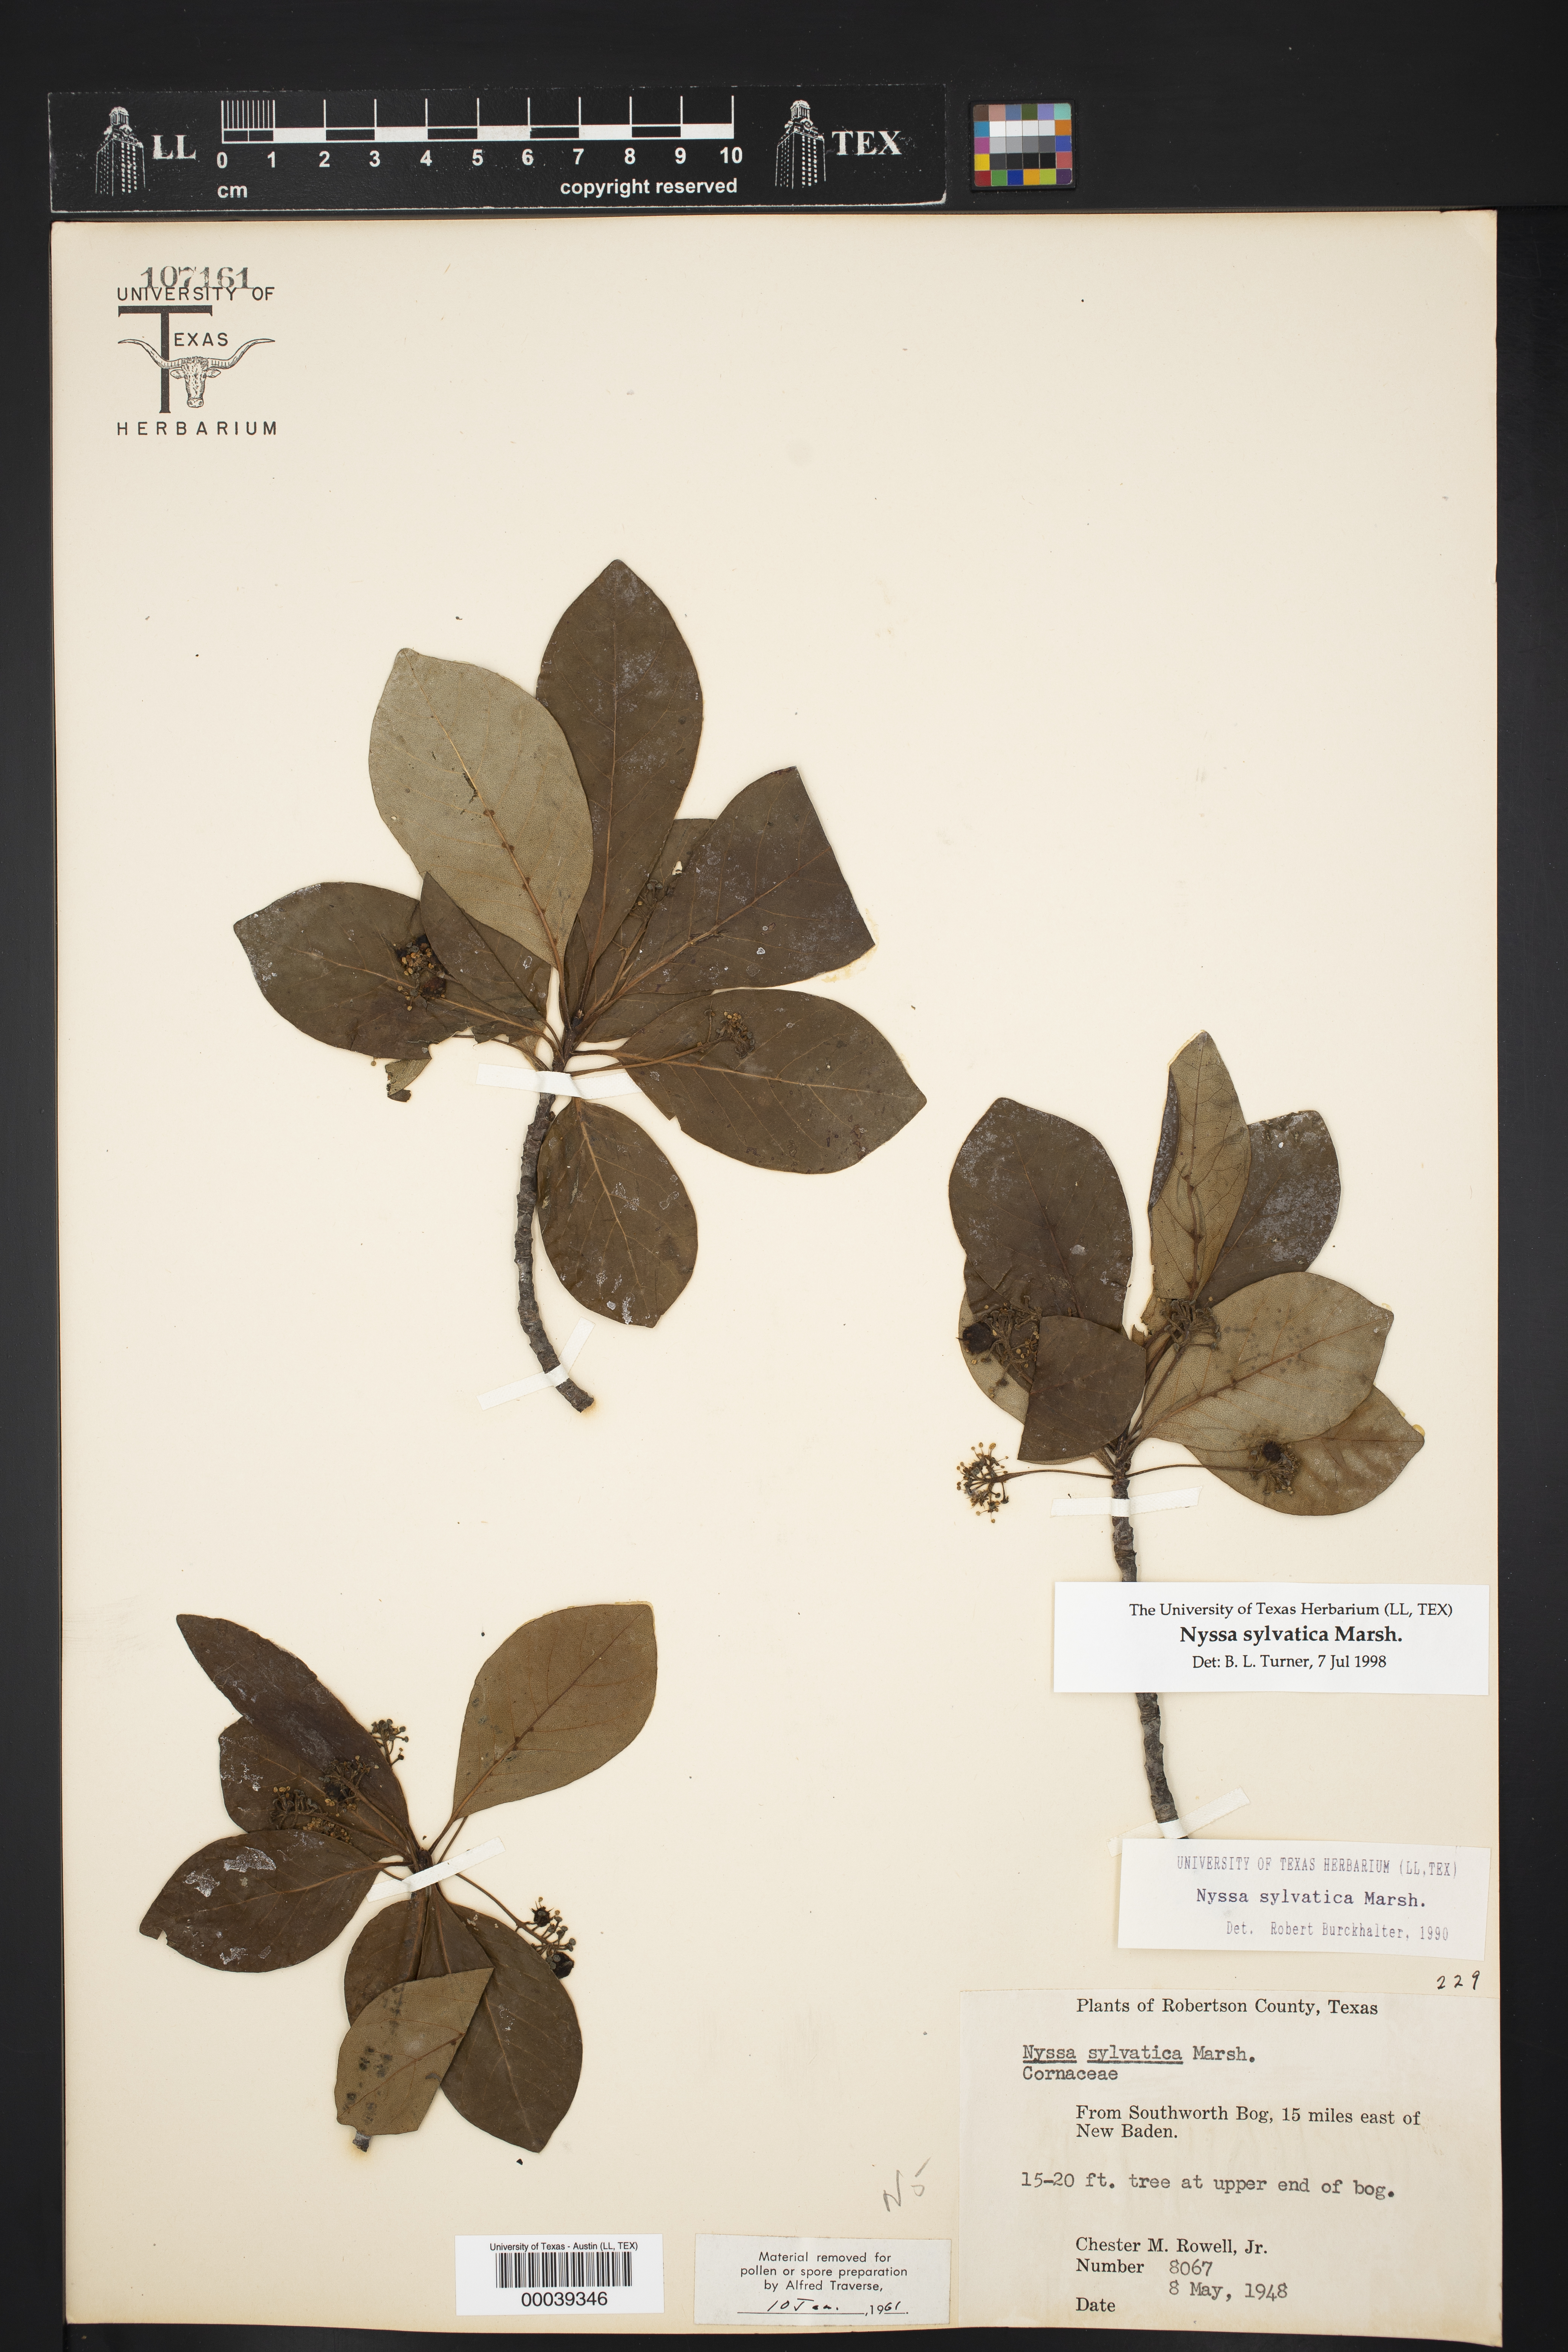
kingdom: Plantae
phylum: Tracheophyta
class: Magnoliopsida
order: Cornales
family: Nyssaceae
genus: Nyssa
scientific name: Nyssa sylvatica
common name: Black tupelo
